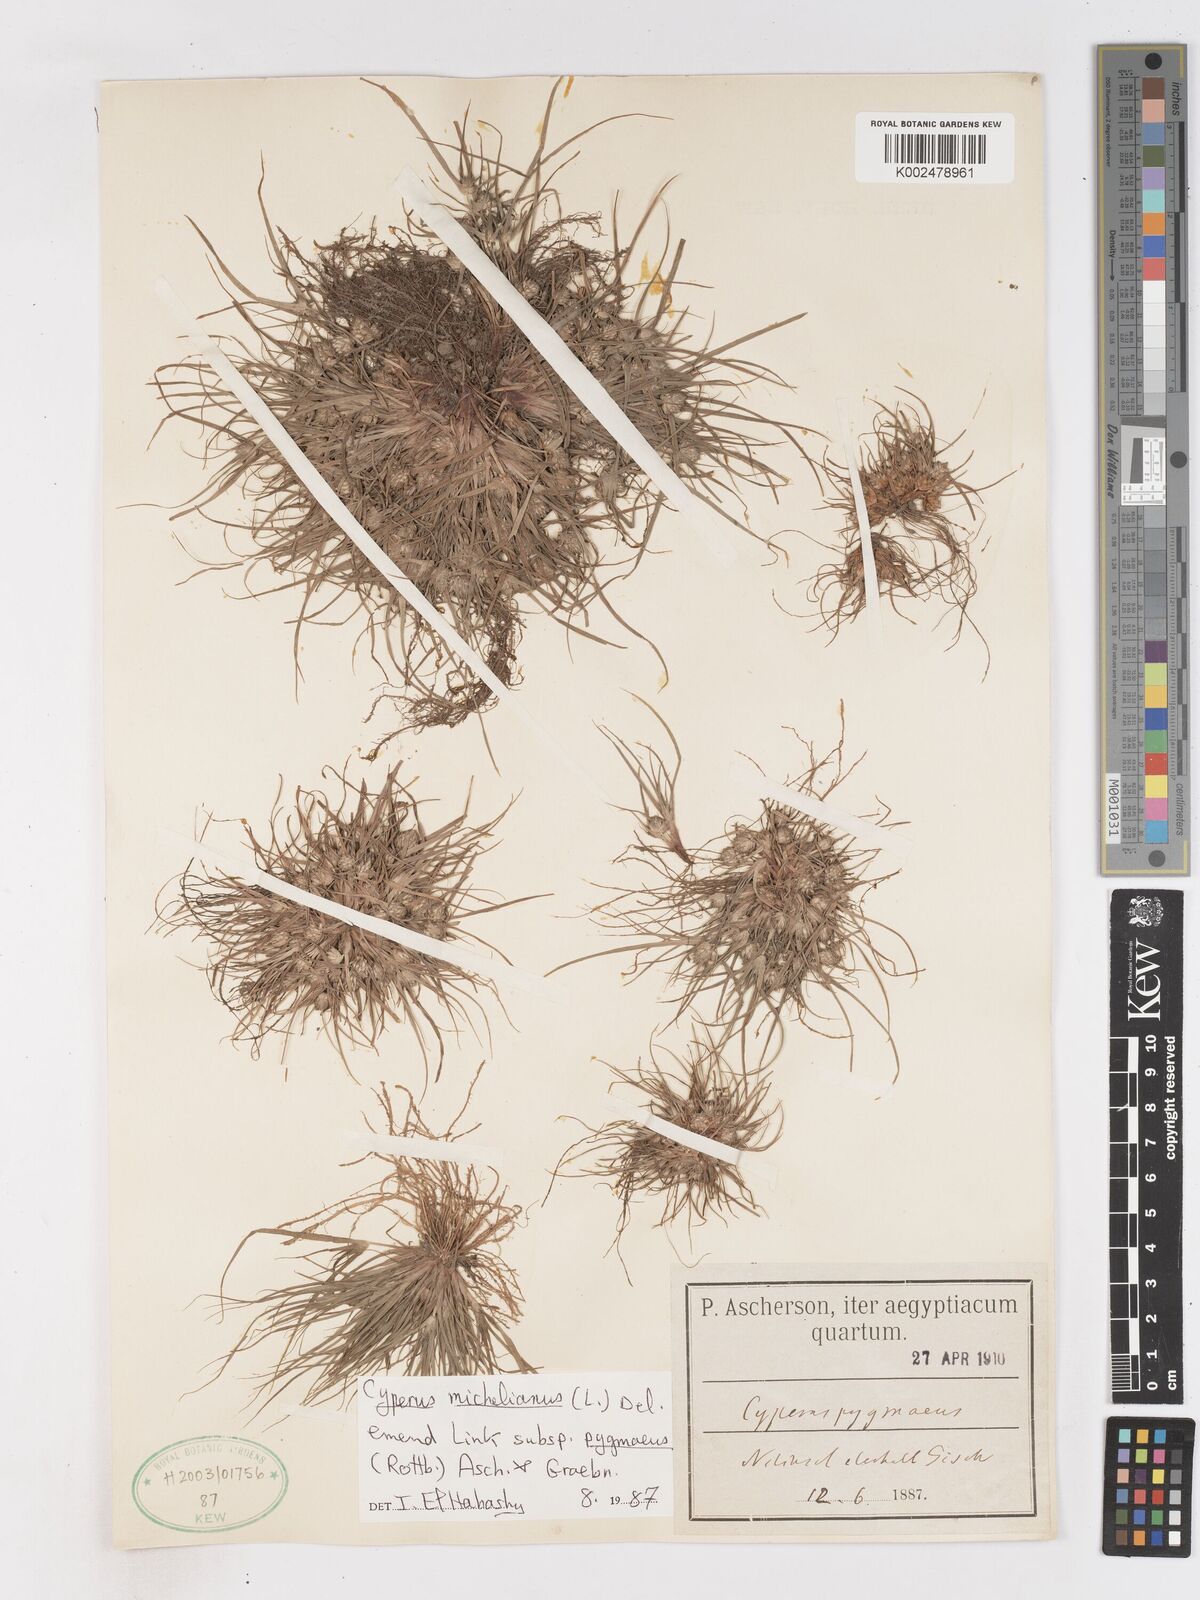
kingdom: Plantae
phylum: Tracheophyta
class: Liliopsida
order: Poales
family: Cyperaceae
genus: Cyperus
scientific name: Cyperus michelianus
